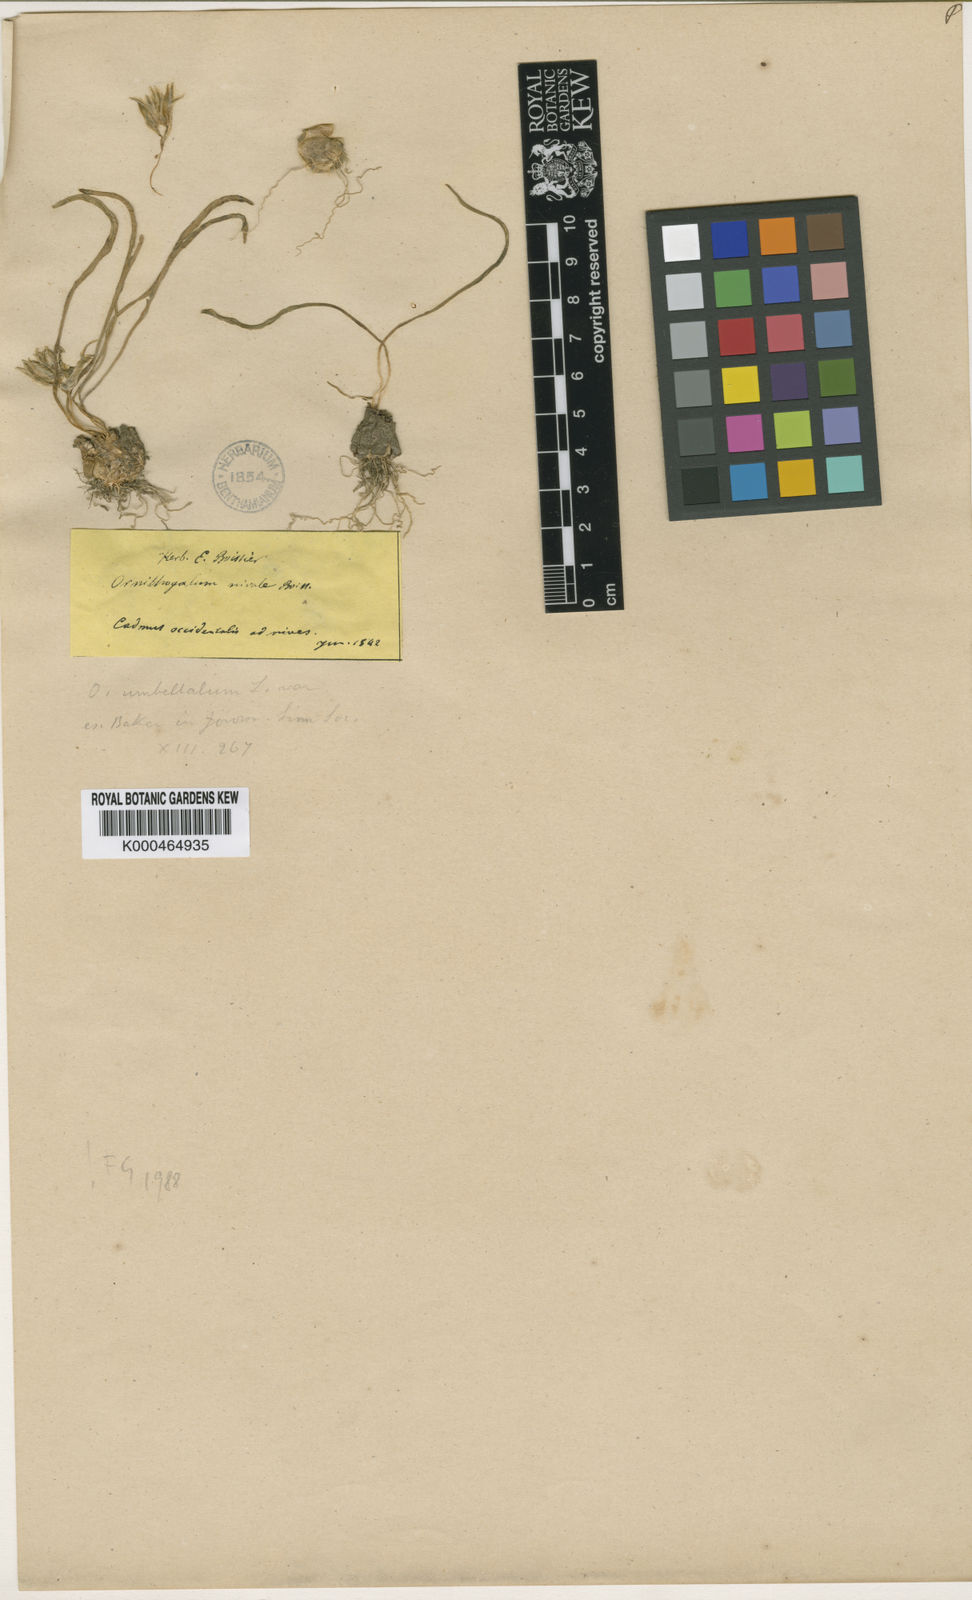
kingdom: Plantae
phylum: Tracheophyta
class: Liliopsida
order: Asparagales
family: Asparagaceae
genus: Ornithogalum
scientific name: Ornithogalum nivale
